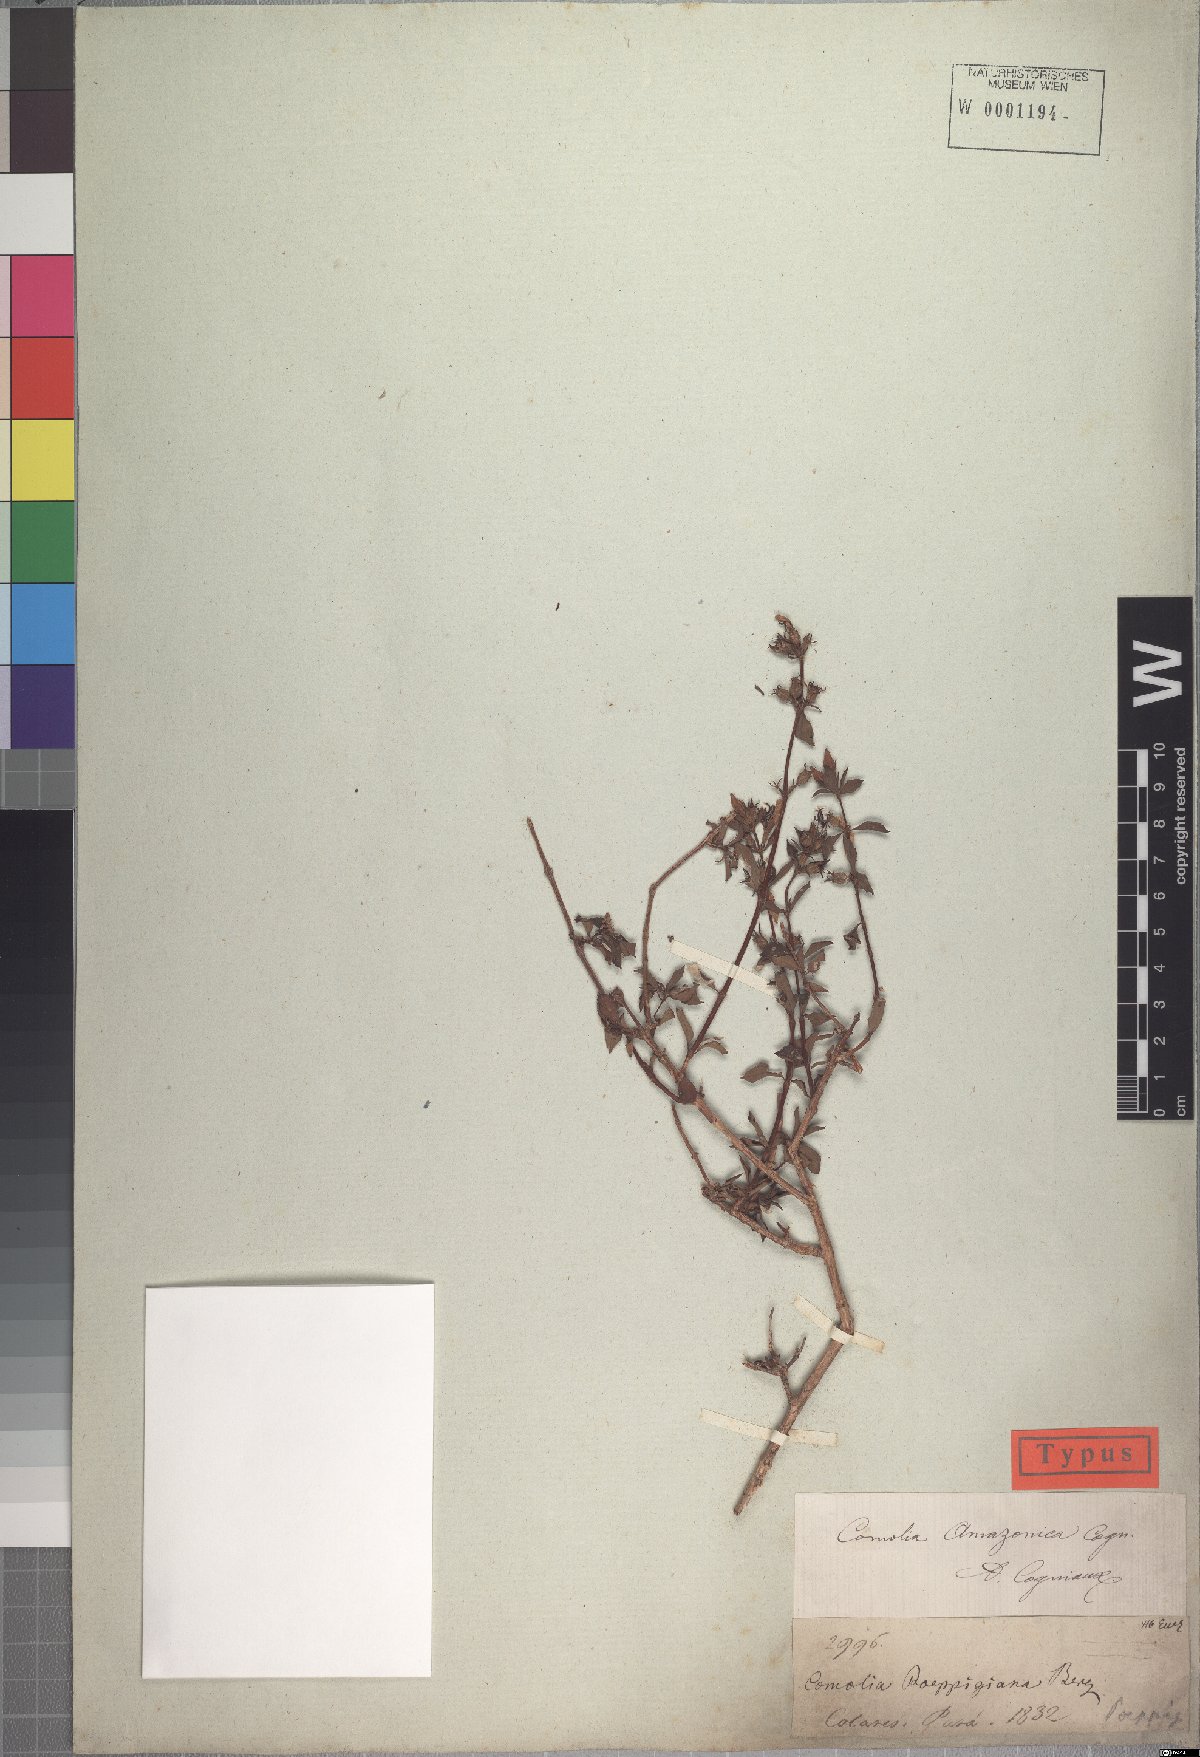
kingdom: Plantae
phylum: Tracheophyta
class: Magnoliopsida
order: Myrtales
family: Melastomataceae
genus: Comolia
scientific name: Comolia villosa
